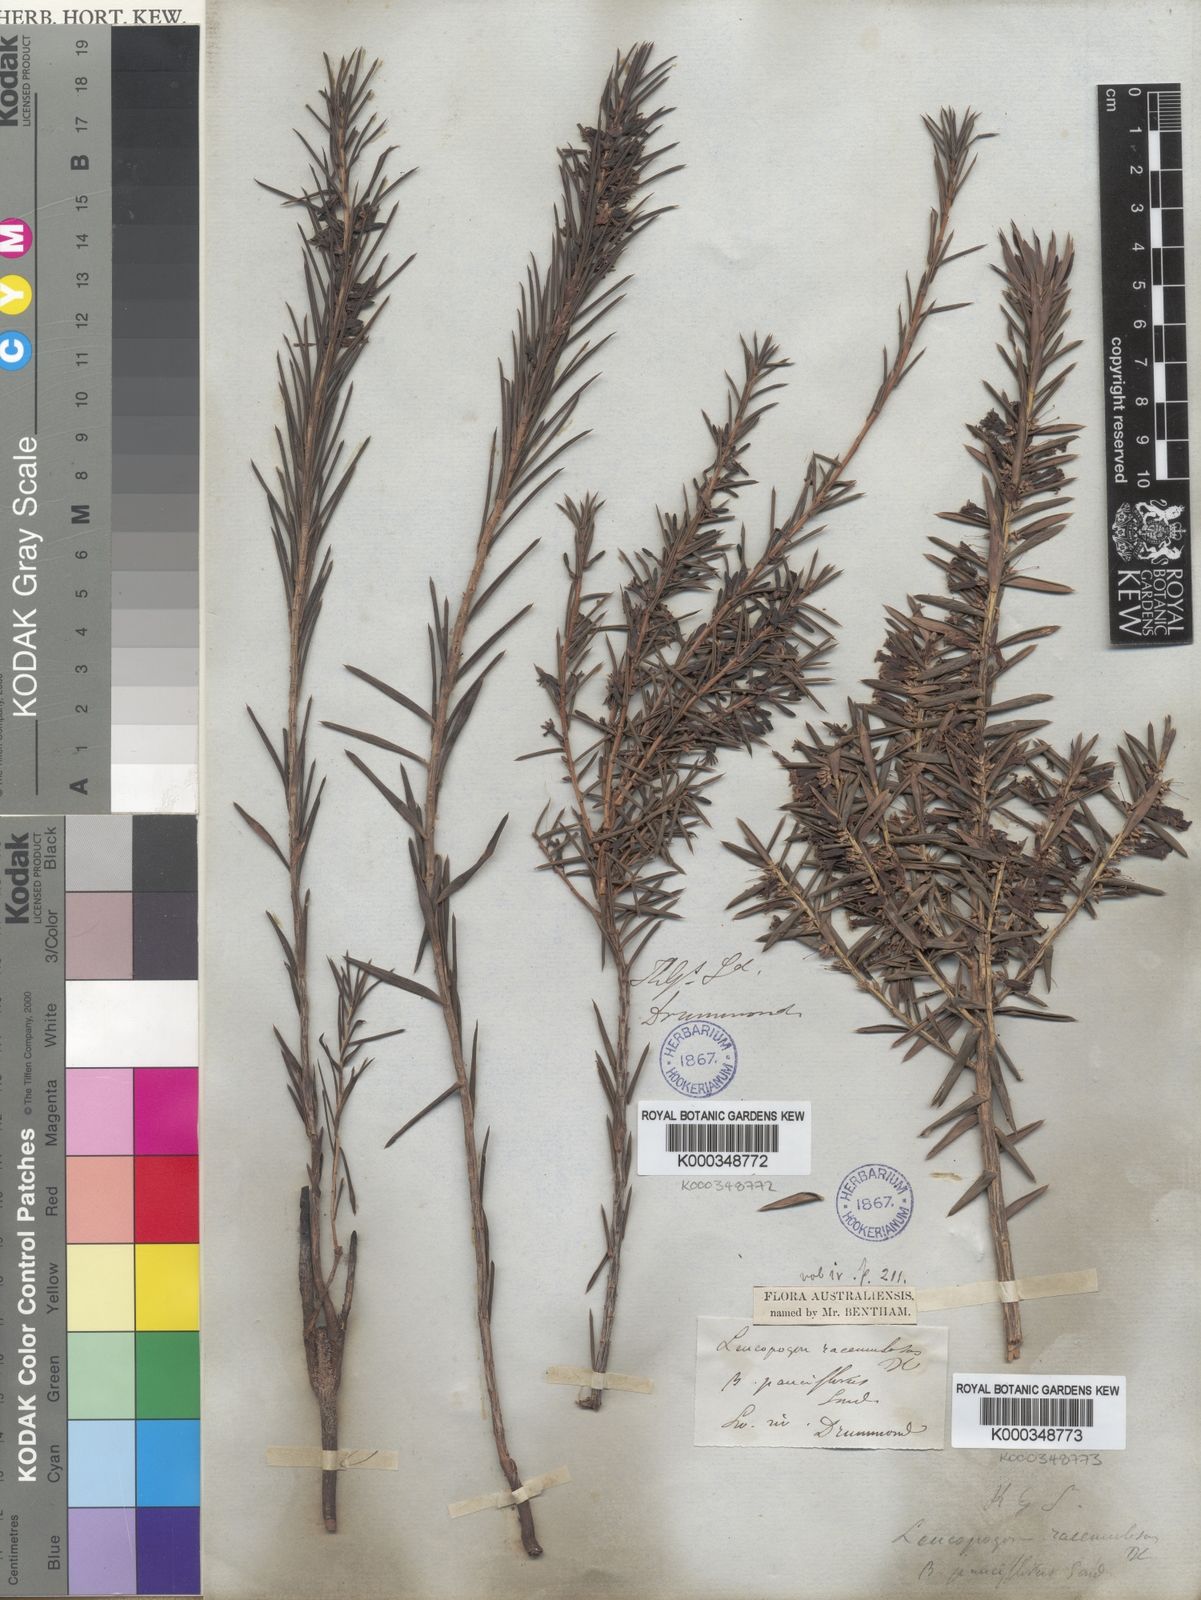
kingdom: Plantae
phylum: Tracheophyta
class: Magnoliopsida
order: Ericales
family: Ericaceae
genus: Styphelia
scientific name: Styphelia racemulosa
